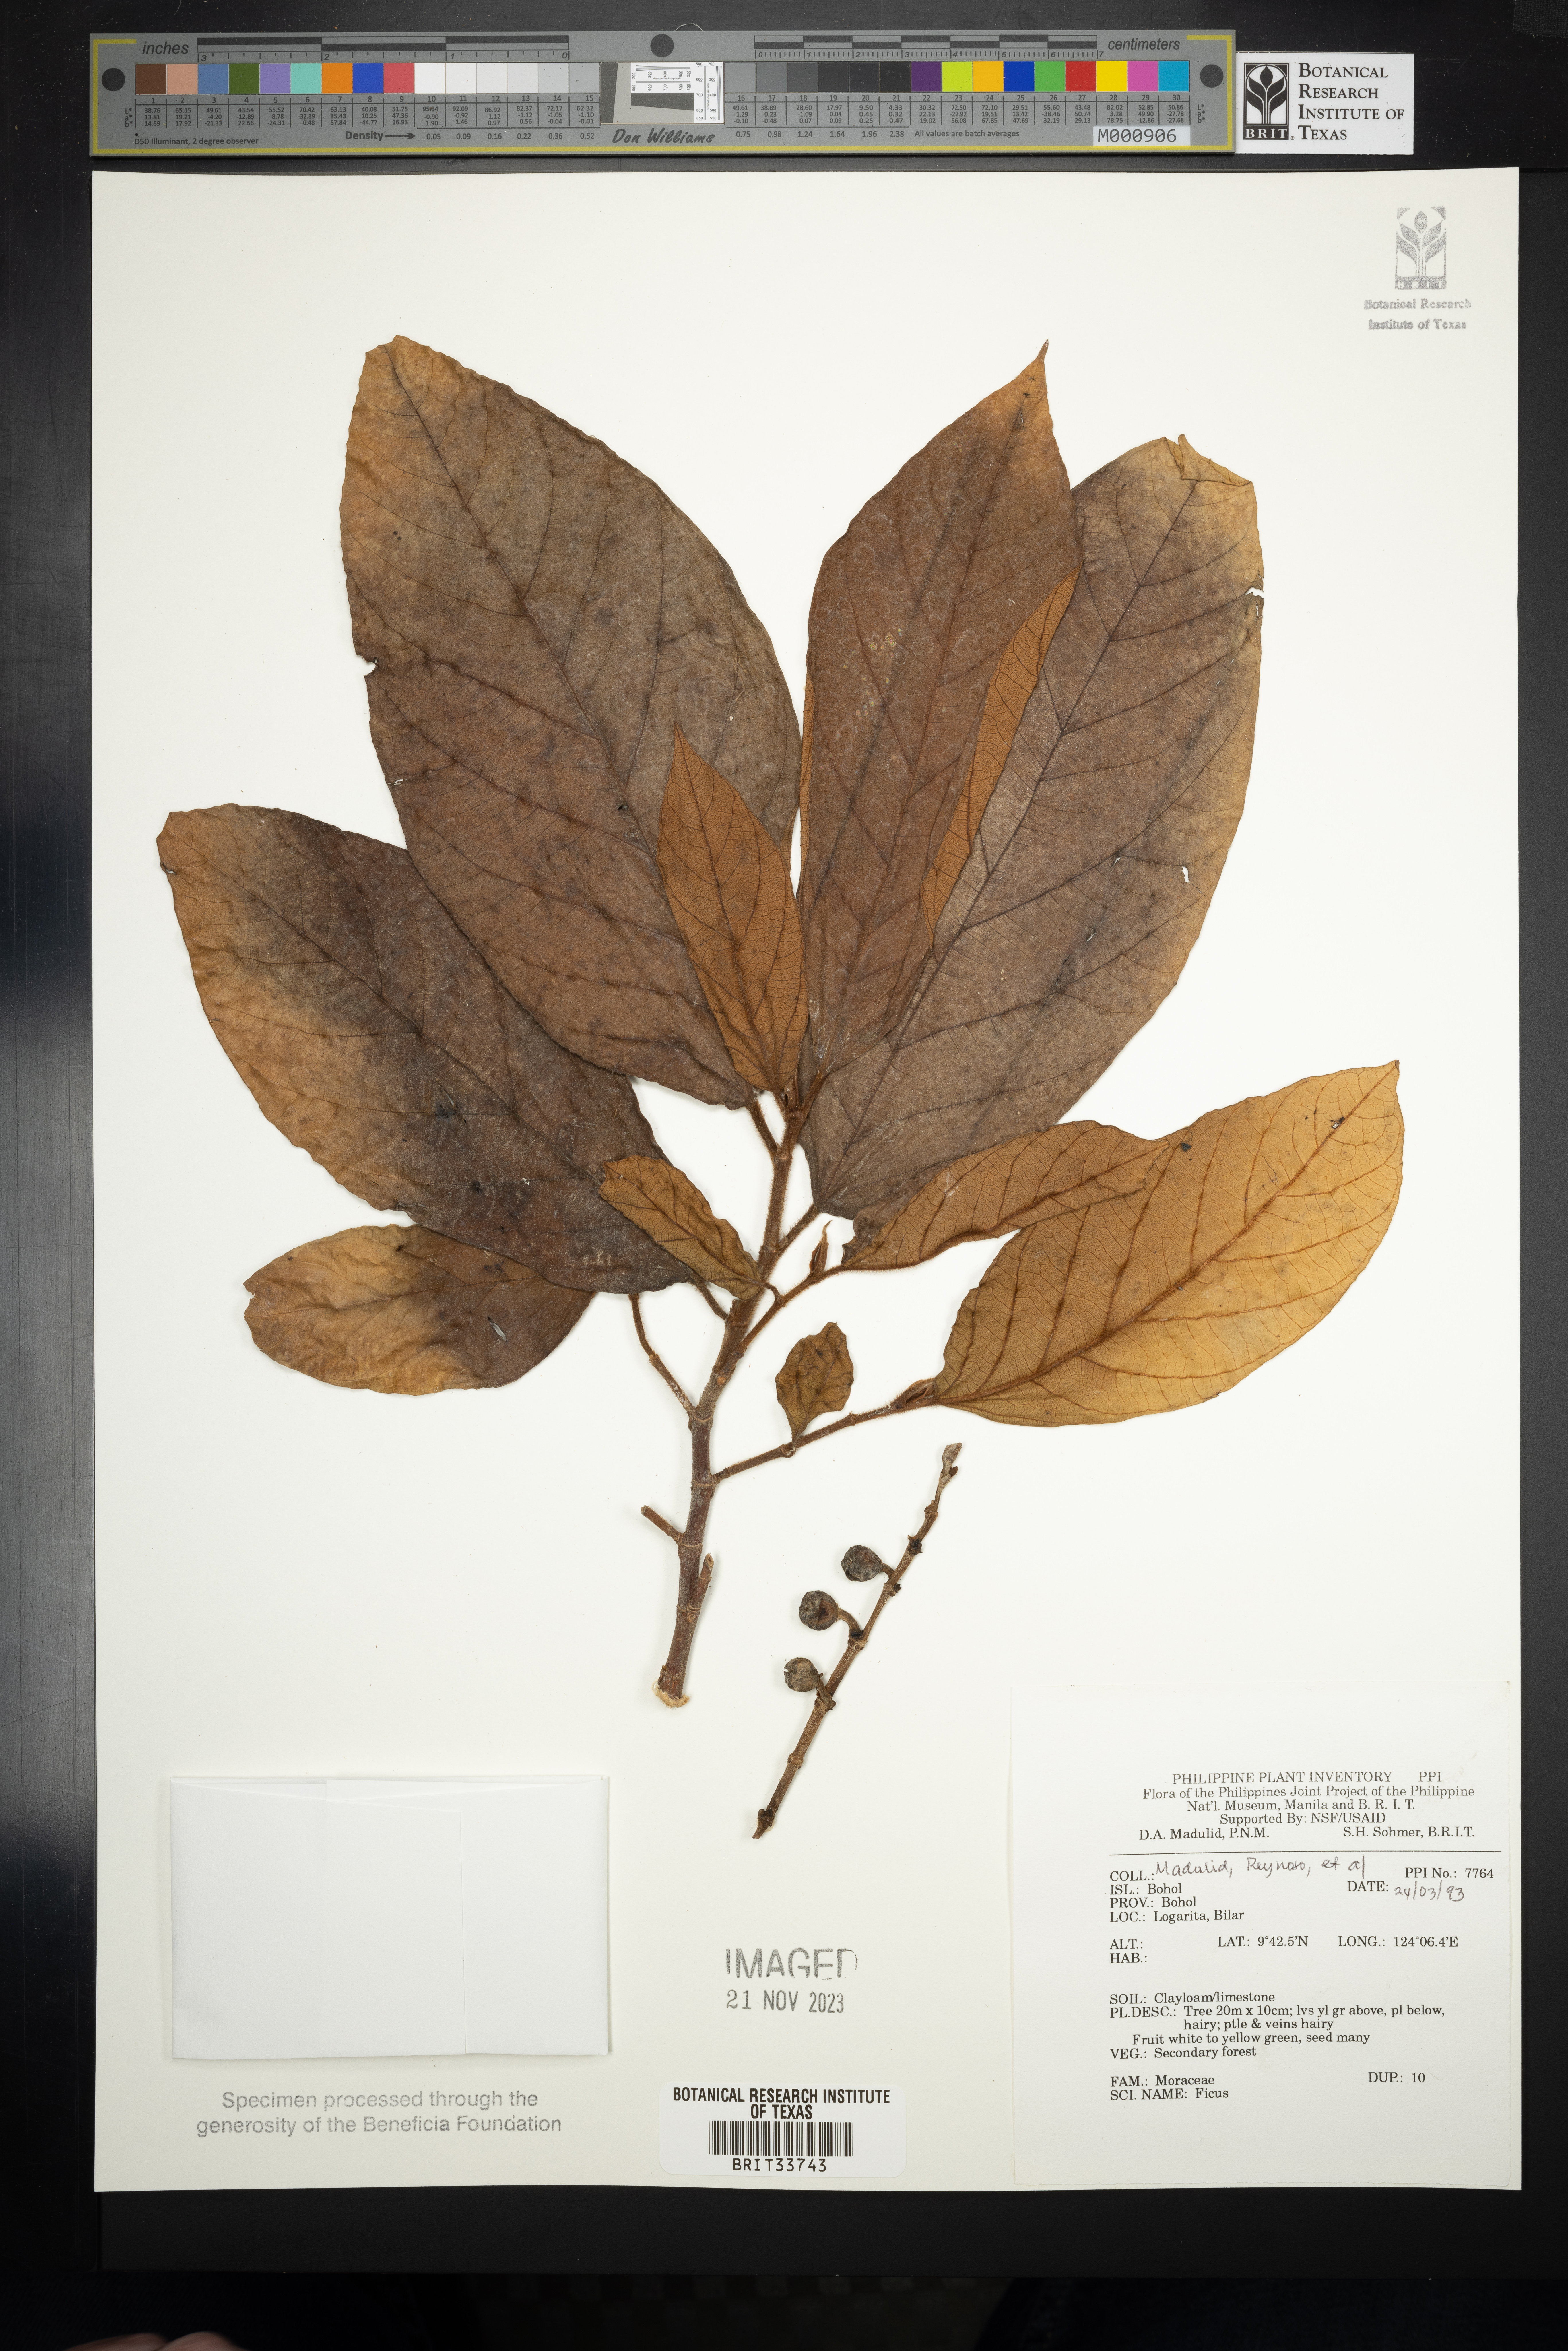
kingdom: Plantae
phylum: Tracheophyta
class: Magnoliopsida
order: Rosales
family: Moraceae
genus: Ficus
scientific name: Ficus
